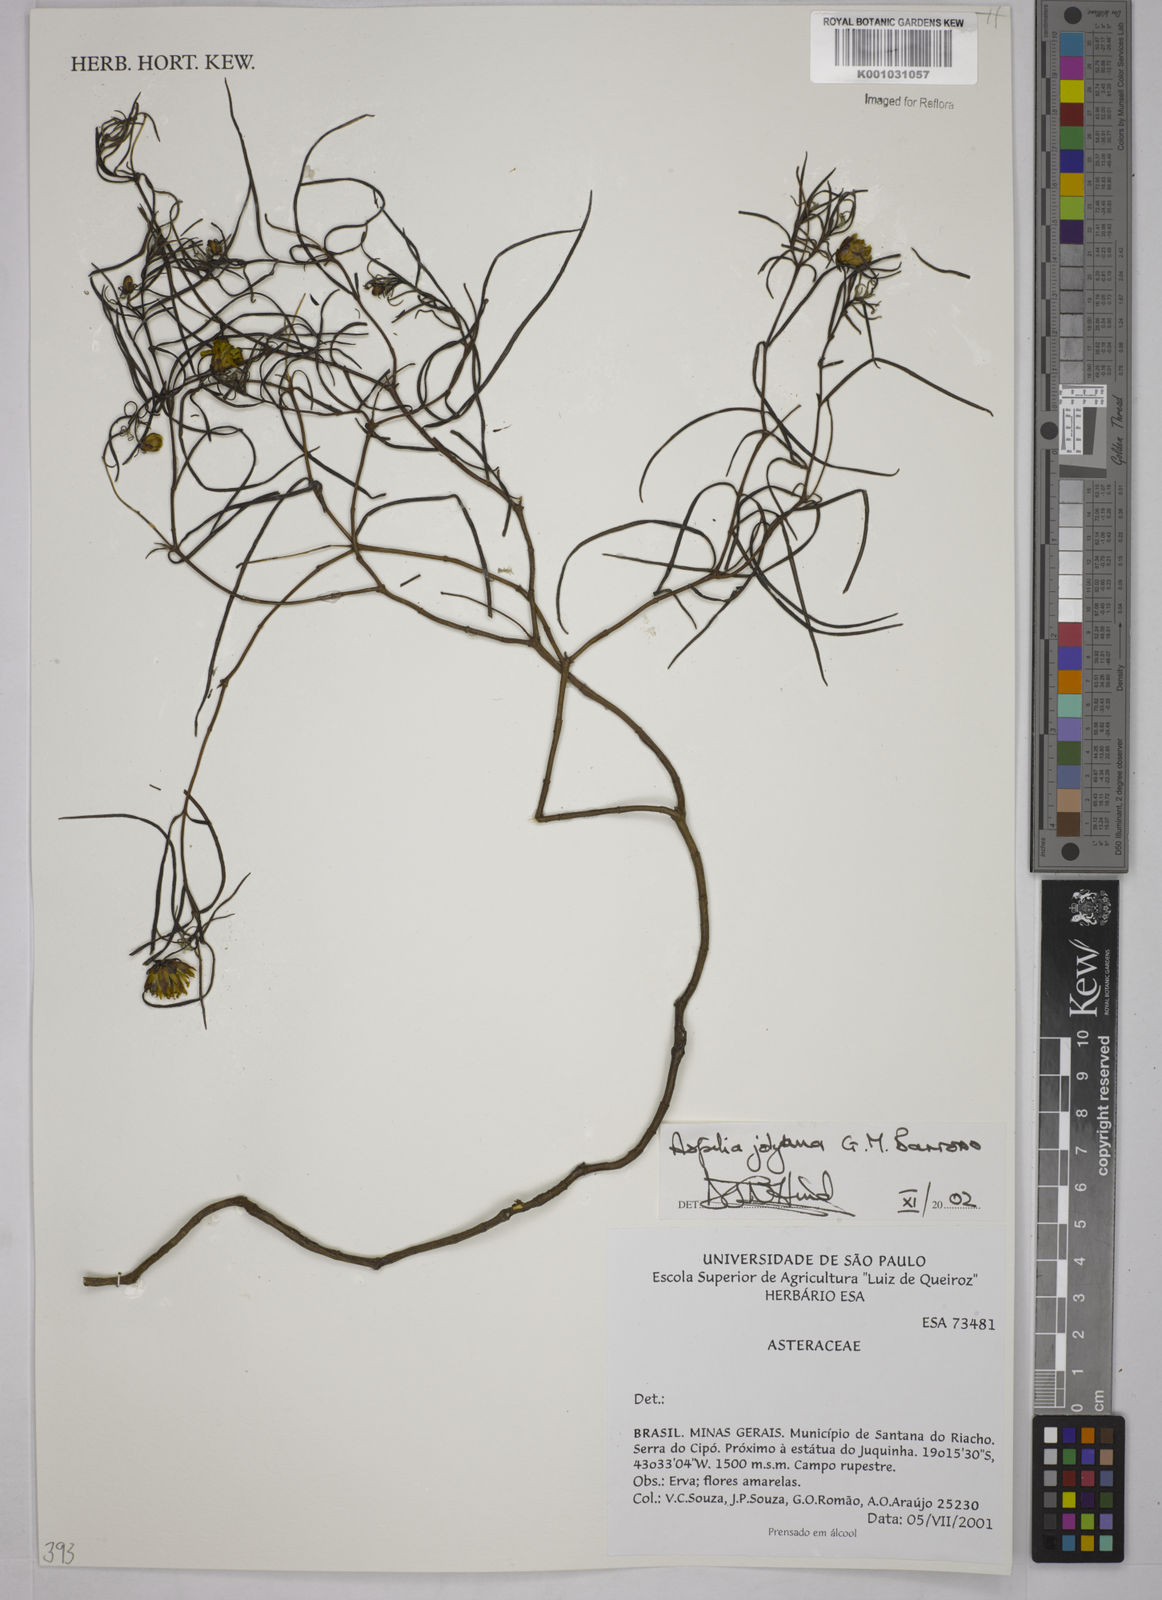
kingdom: Plantae
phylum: Tracheophyta
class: Magnoliopsida
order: Asterales
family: Asteraceae
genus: Aspilia
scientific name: Aspilia jolyana
